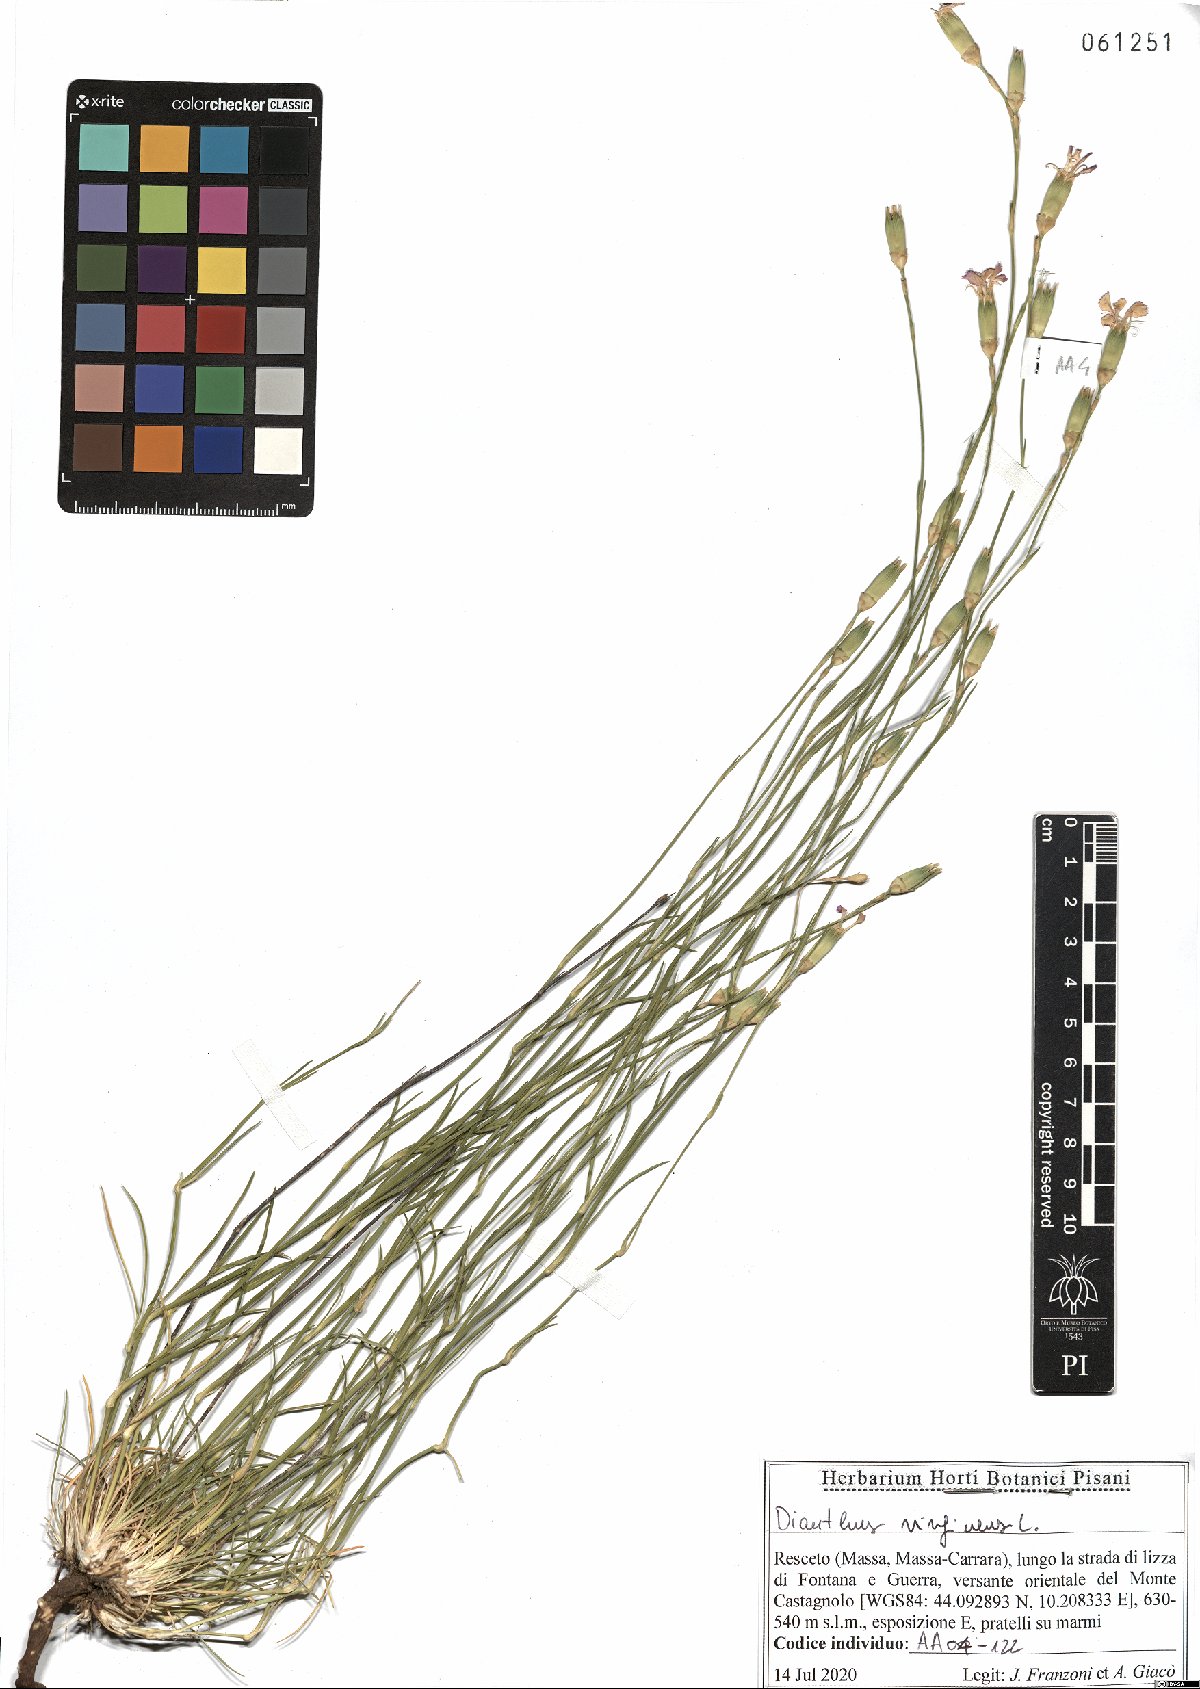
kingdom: Plantae
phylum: Tracheophyta
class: Magnoliopsida
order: Caryophyllales
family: Caryophyllaceae
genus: Dianthus
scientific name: Dianthus virgineus
